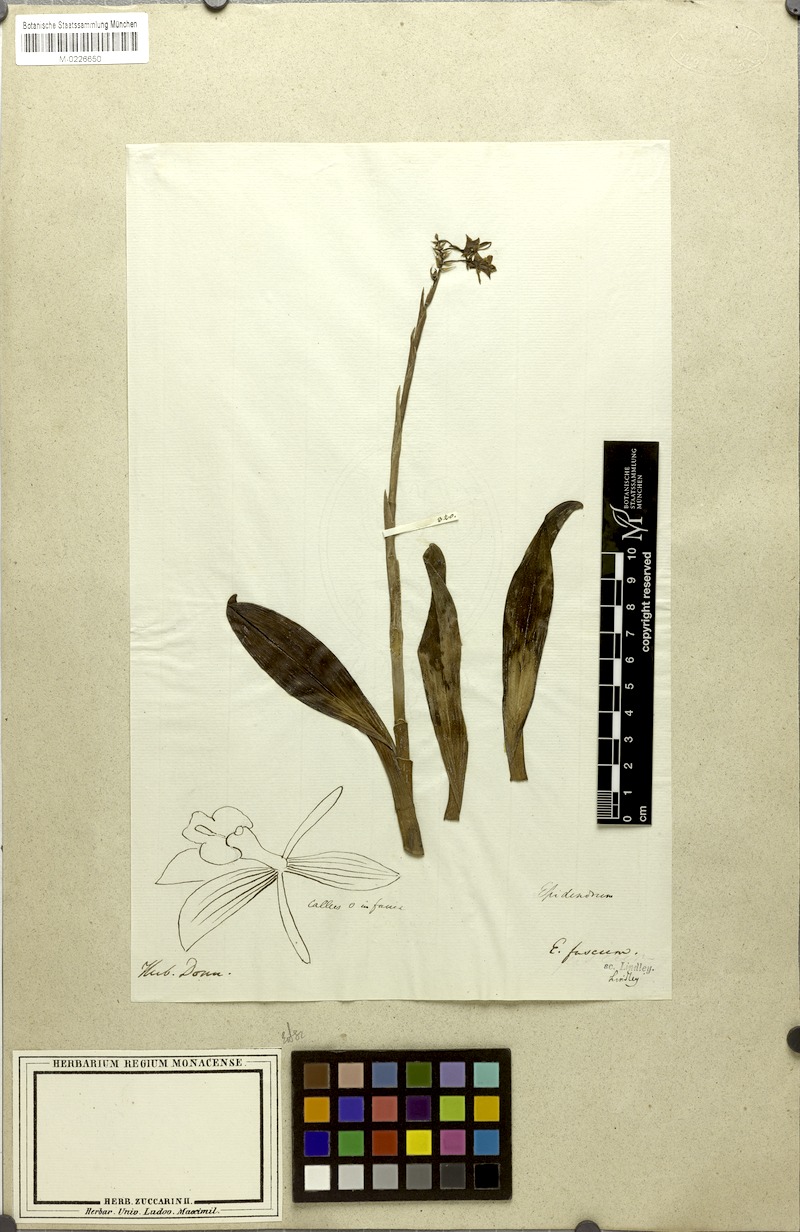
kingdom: Plantae
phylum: Tracheophyta
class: Liliopsida
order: Asparagales
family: Orchidaceae
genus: Epidendrum
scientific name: Epidendrum anceps
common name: Brown-flower butterfly orchid
